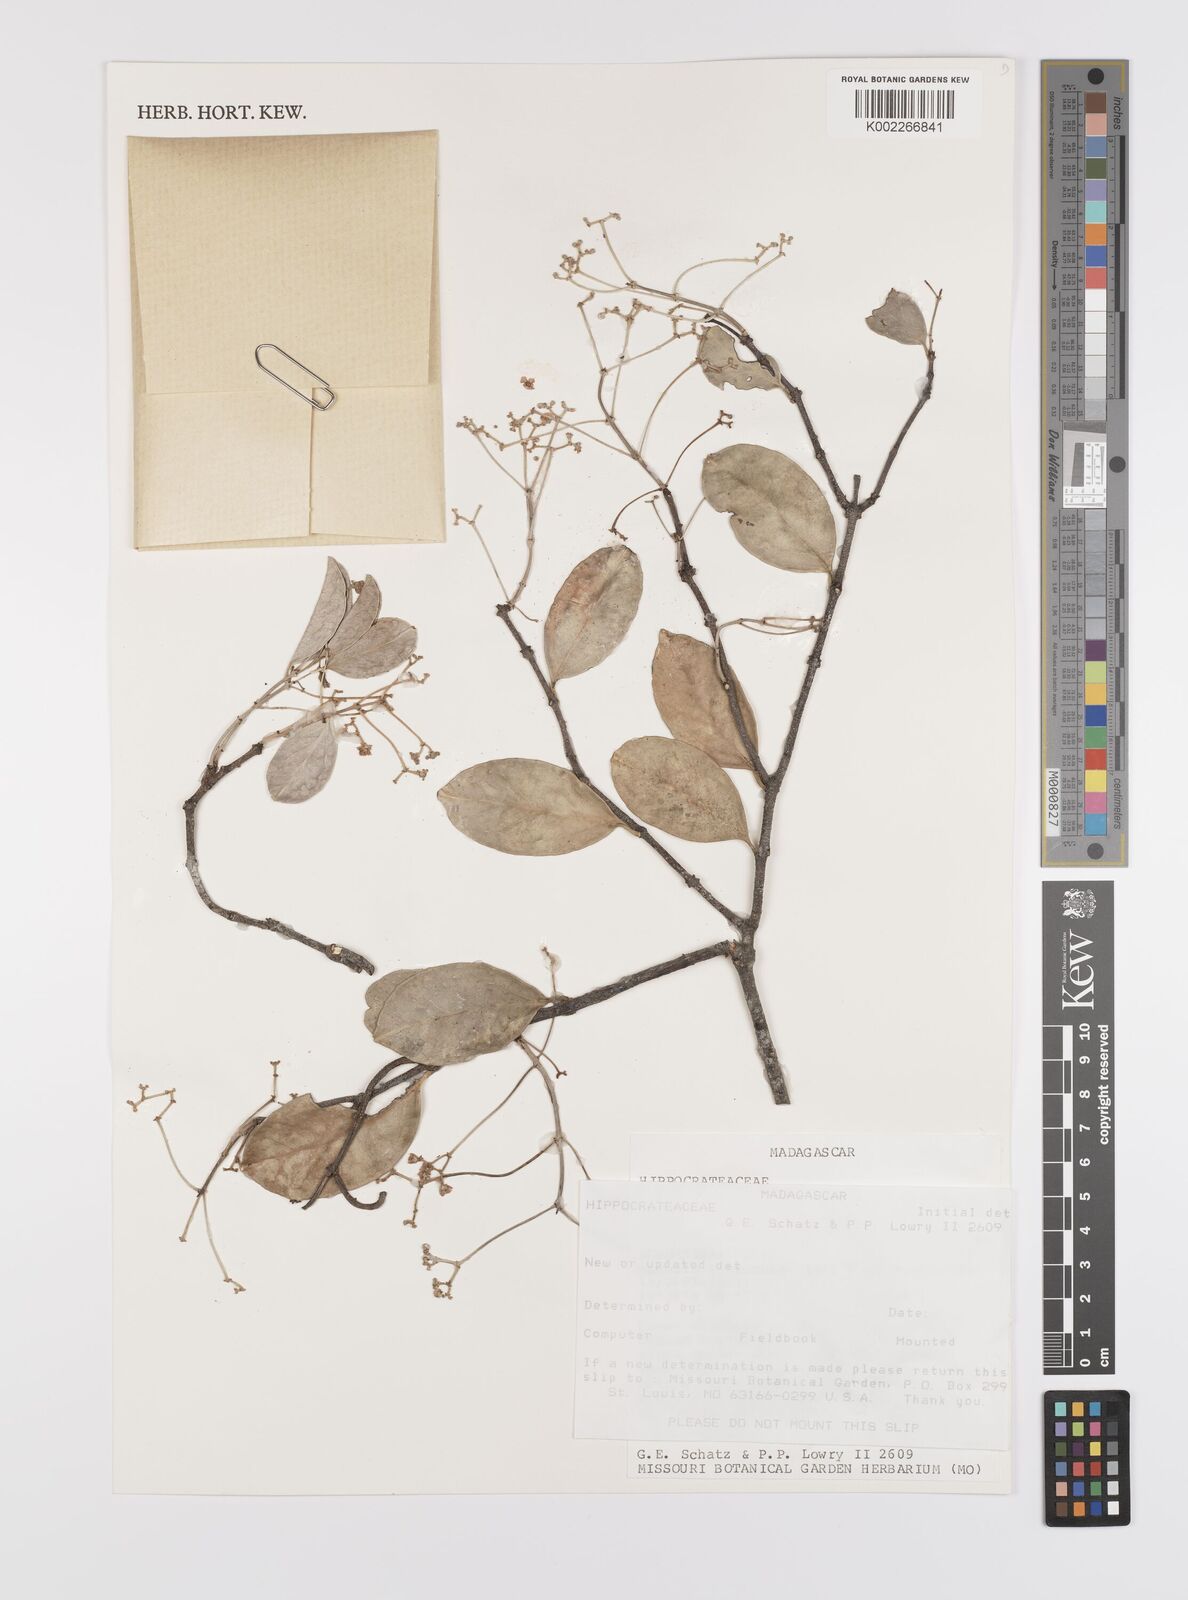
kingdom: Plantae
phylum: Tracheophyta
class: Magnoliopsida
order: Celastrales
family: Celastraceae
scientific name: Celastraceae
